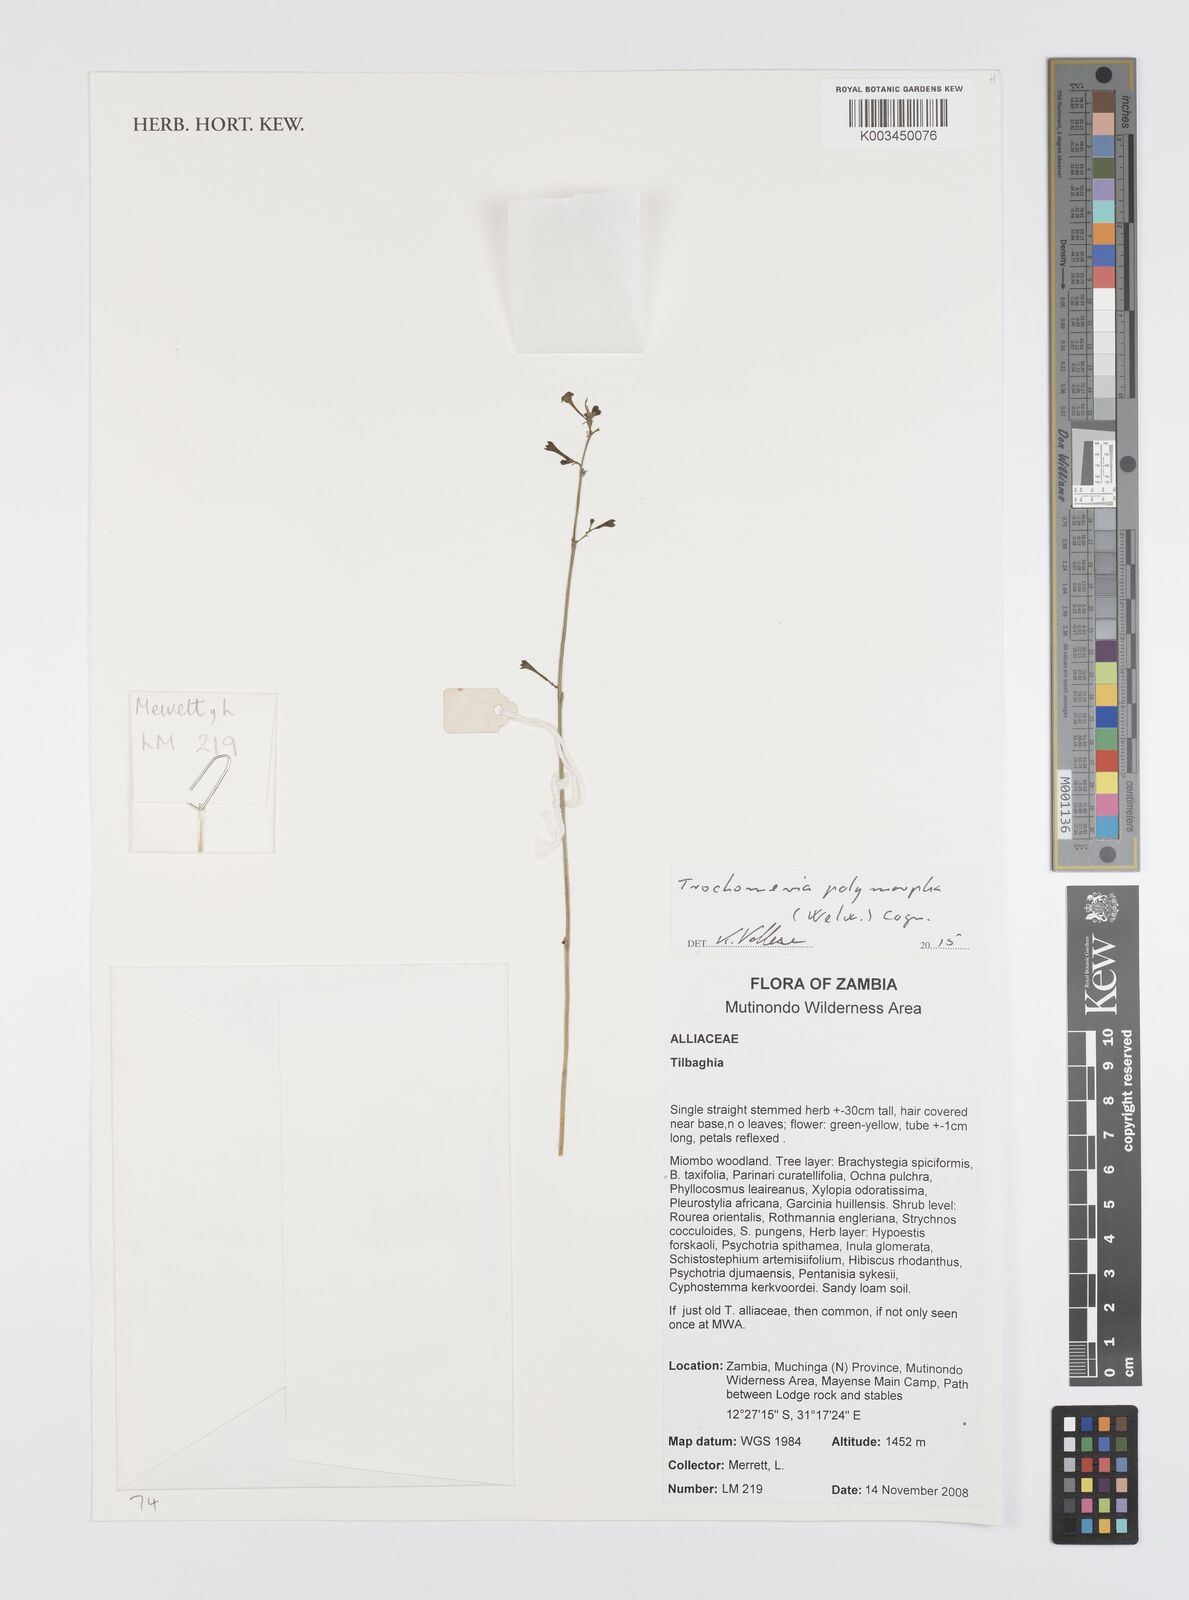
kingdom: Plantae
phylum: Tracheophyta
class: Magnoliopsida
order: Cucurbitales
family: Cucurbitaceae
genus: Trochomeria
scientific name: Trochomeria polymorpha
